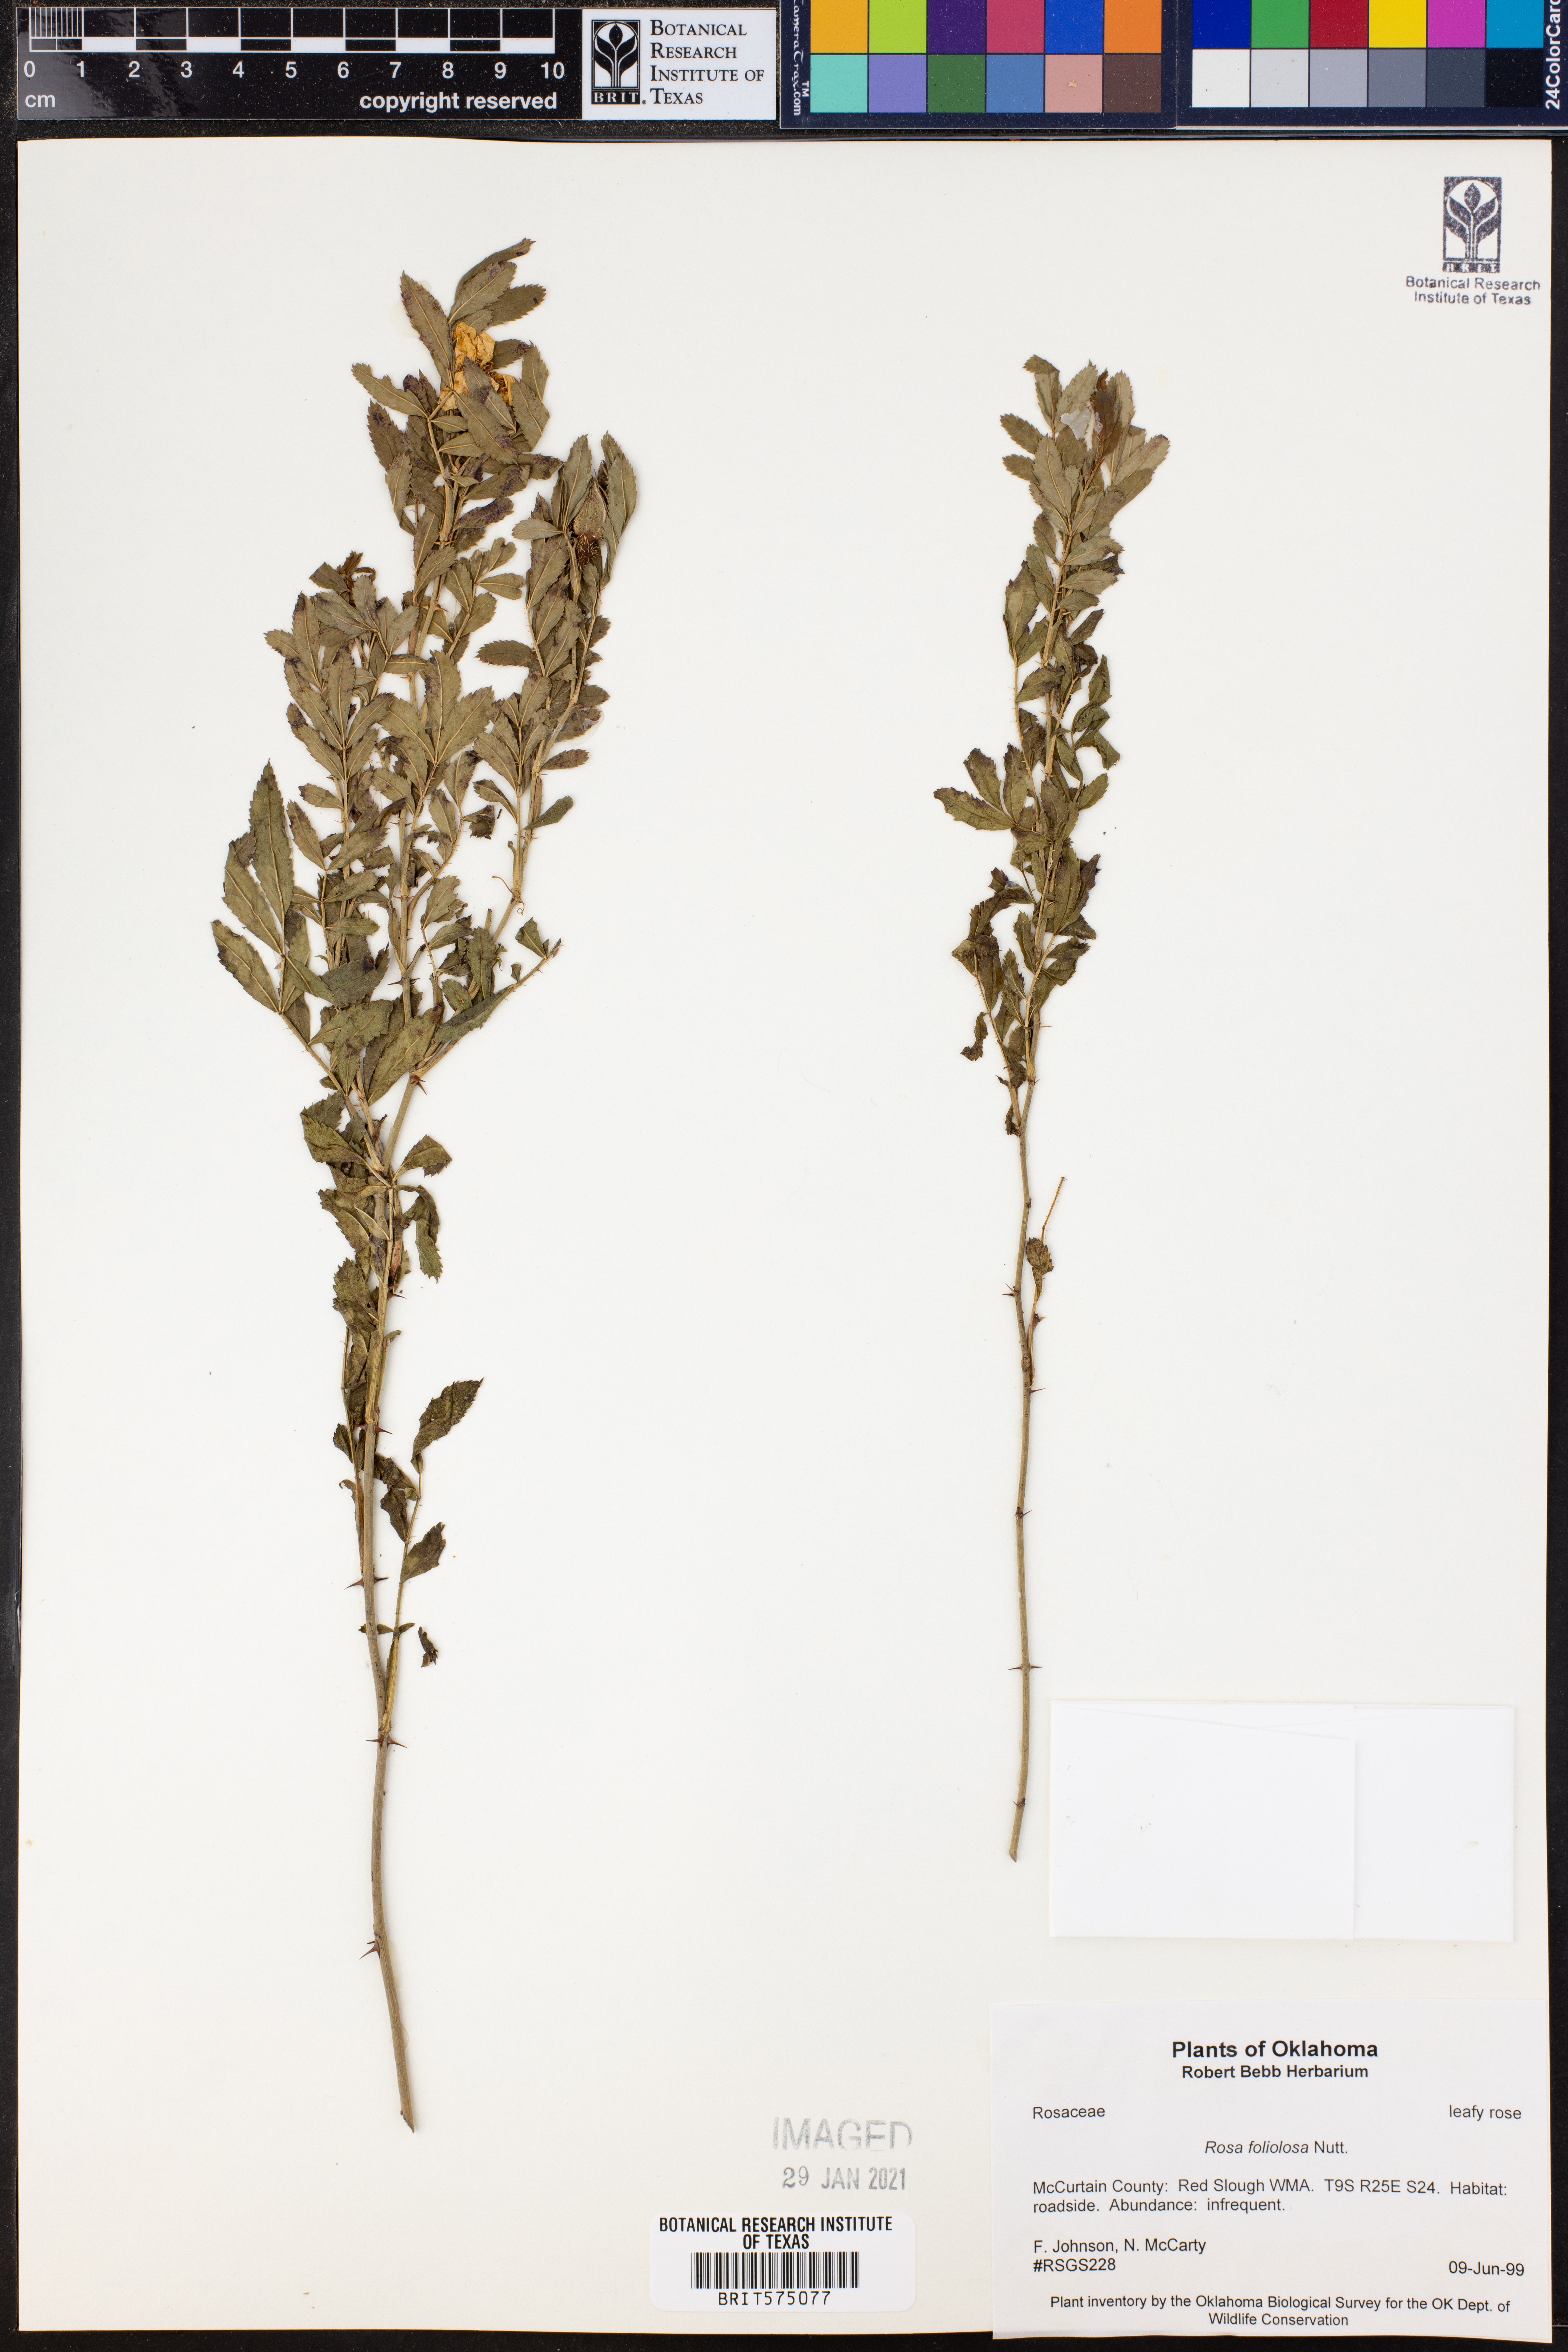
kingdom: Plantae
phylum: Tracheophyta
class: Magnoliopsida
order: Rosales
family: Rosaceae
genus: Rosa
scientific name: Rosa foliolosa
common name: White prairie rose
